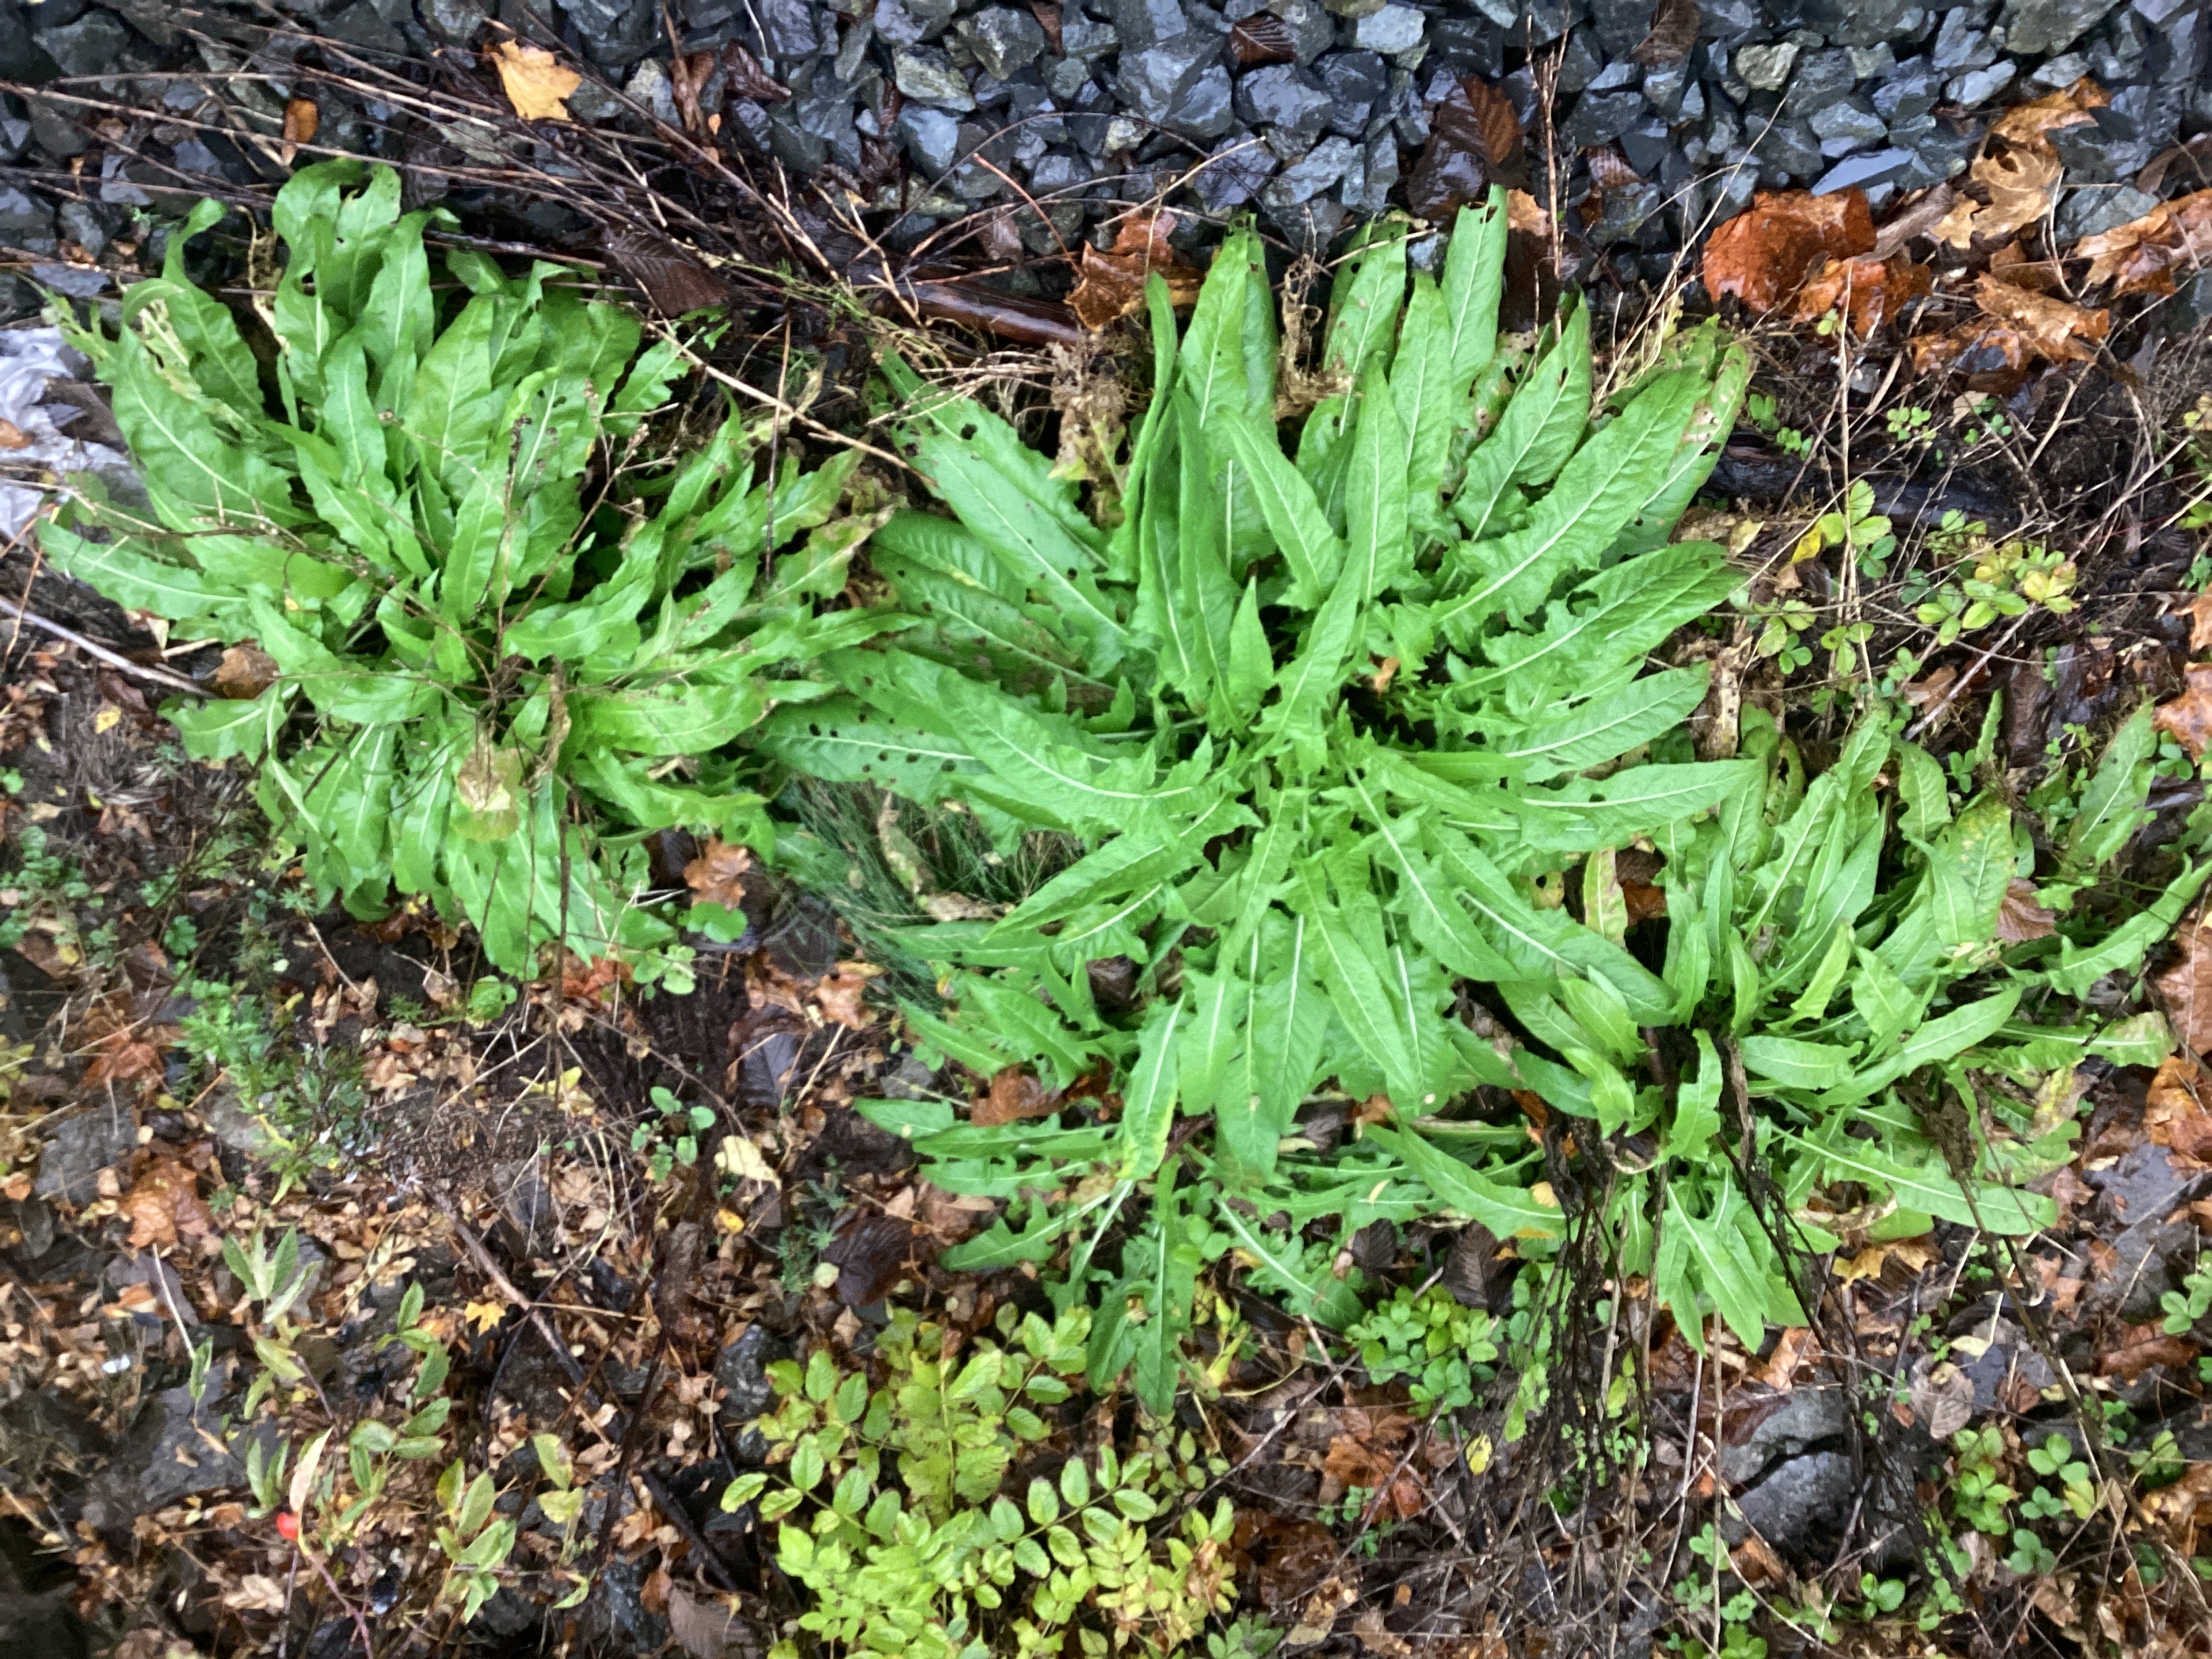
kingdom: Plantae
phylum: Tracheophyta
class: Magnoliopsida
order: Brassicales
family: Brassicaceae
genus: Bunias
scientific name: Bunias orientalis
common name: russekål
